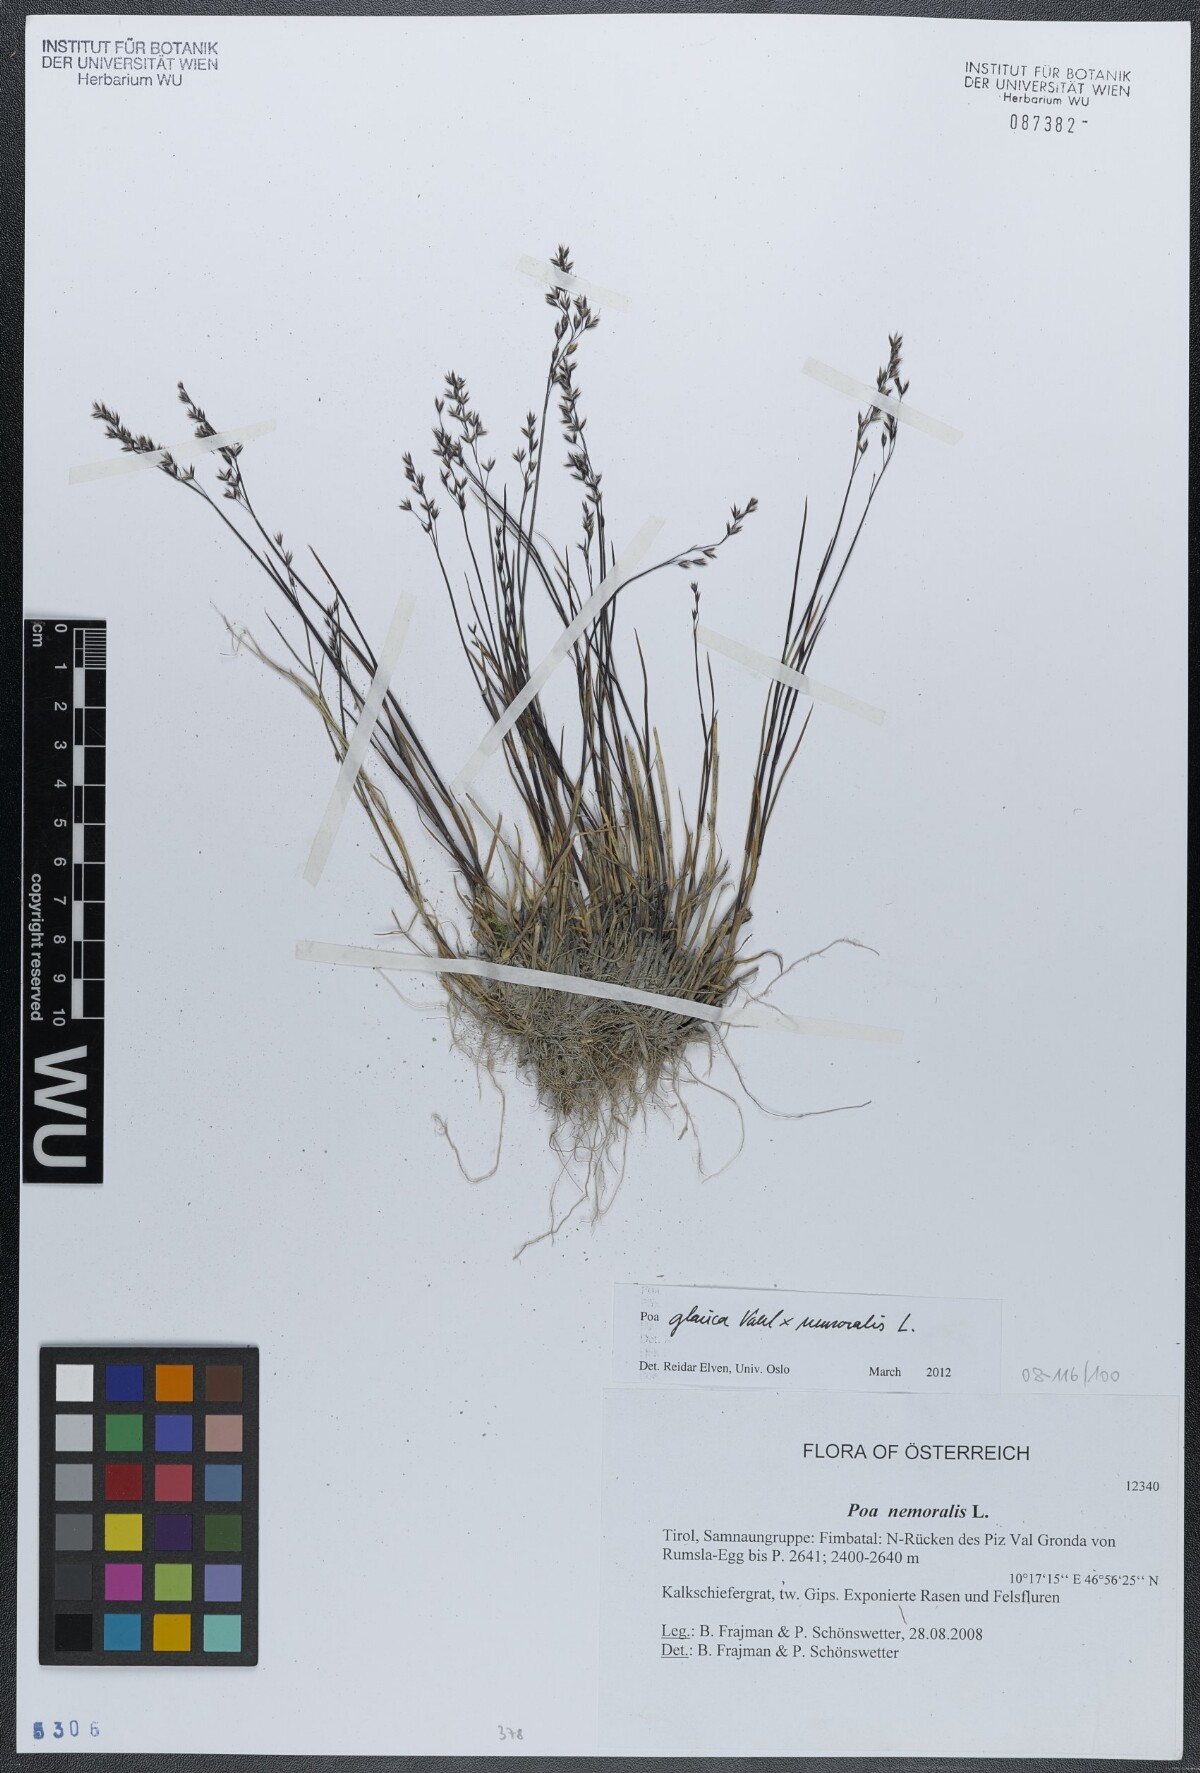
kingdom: Plantae
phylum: Tracheophyta
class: Liliopsida
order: Poales
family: Poaceae
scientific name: Poaceae
